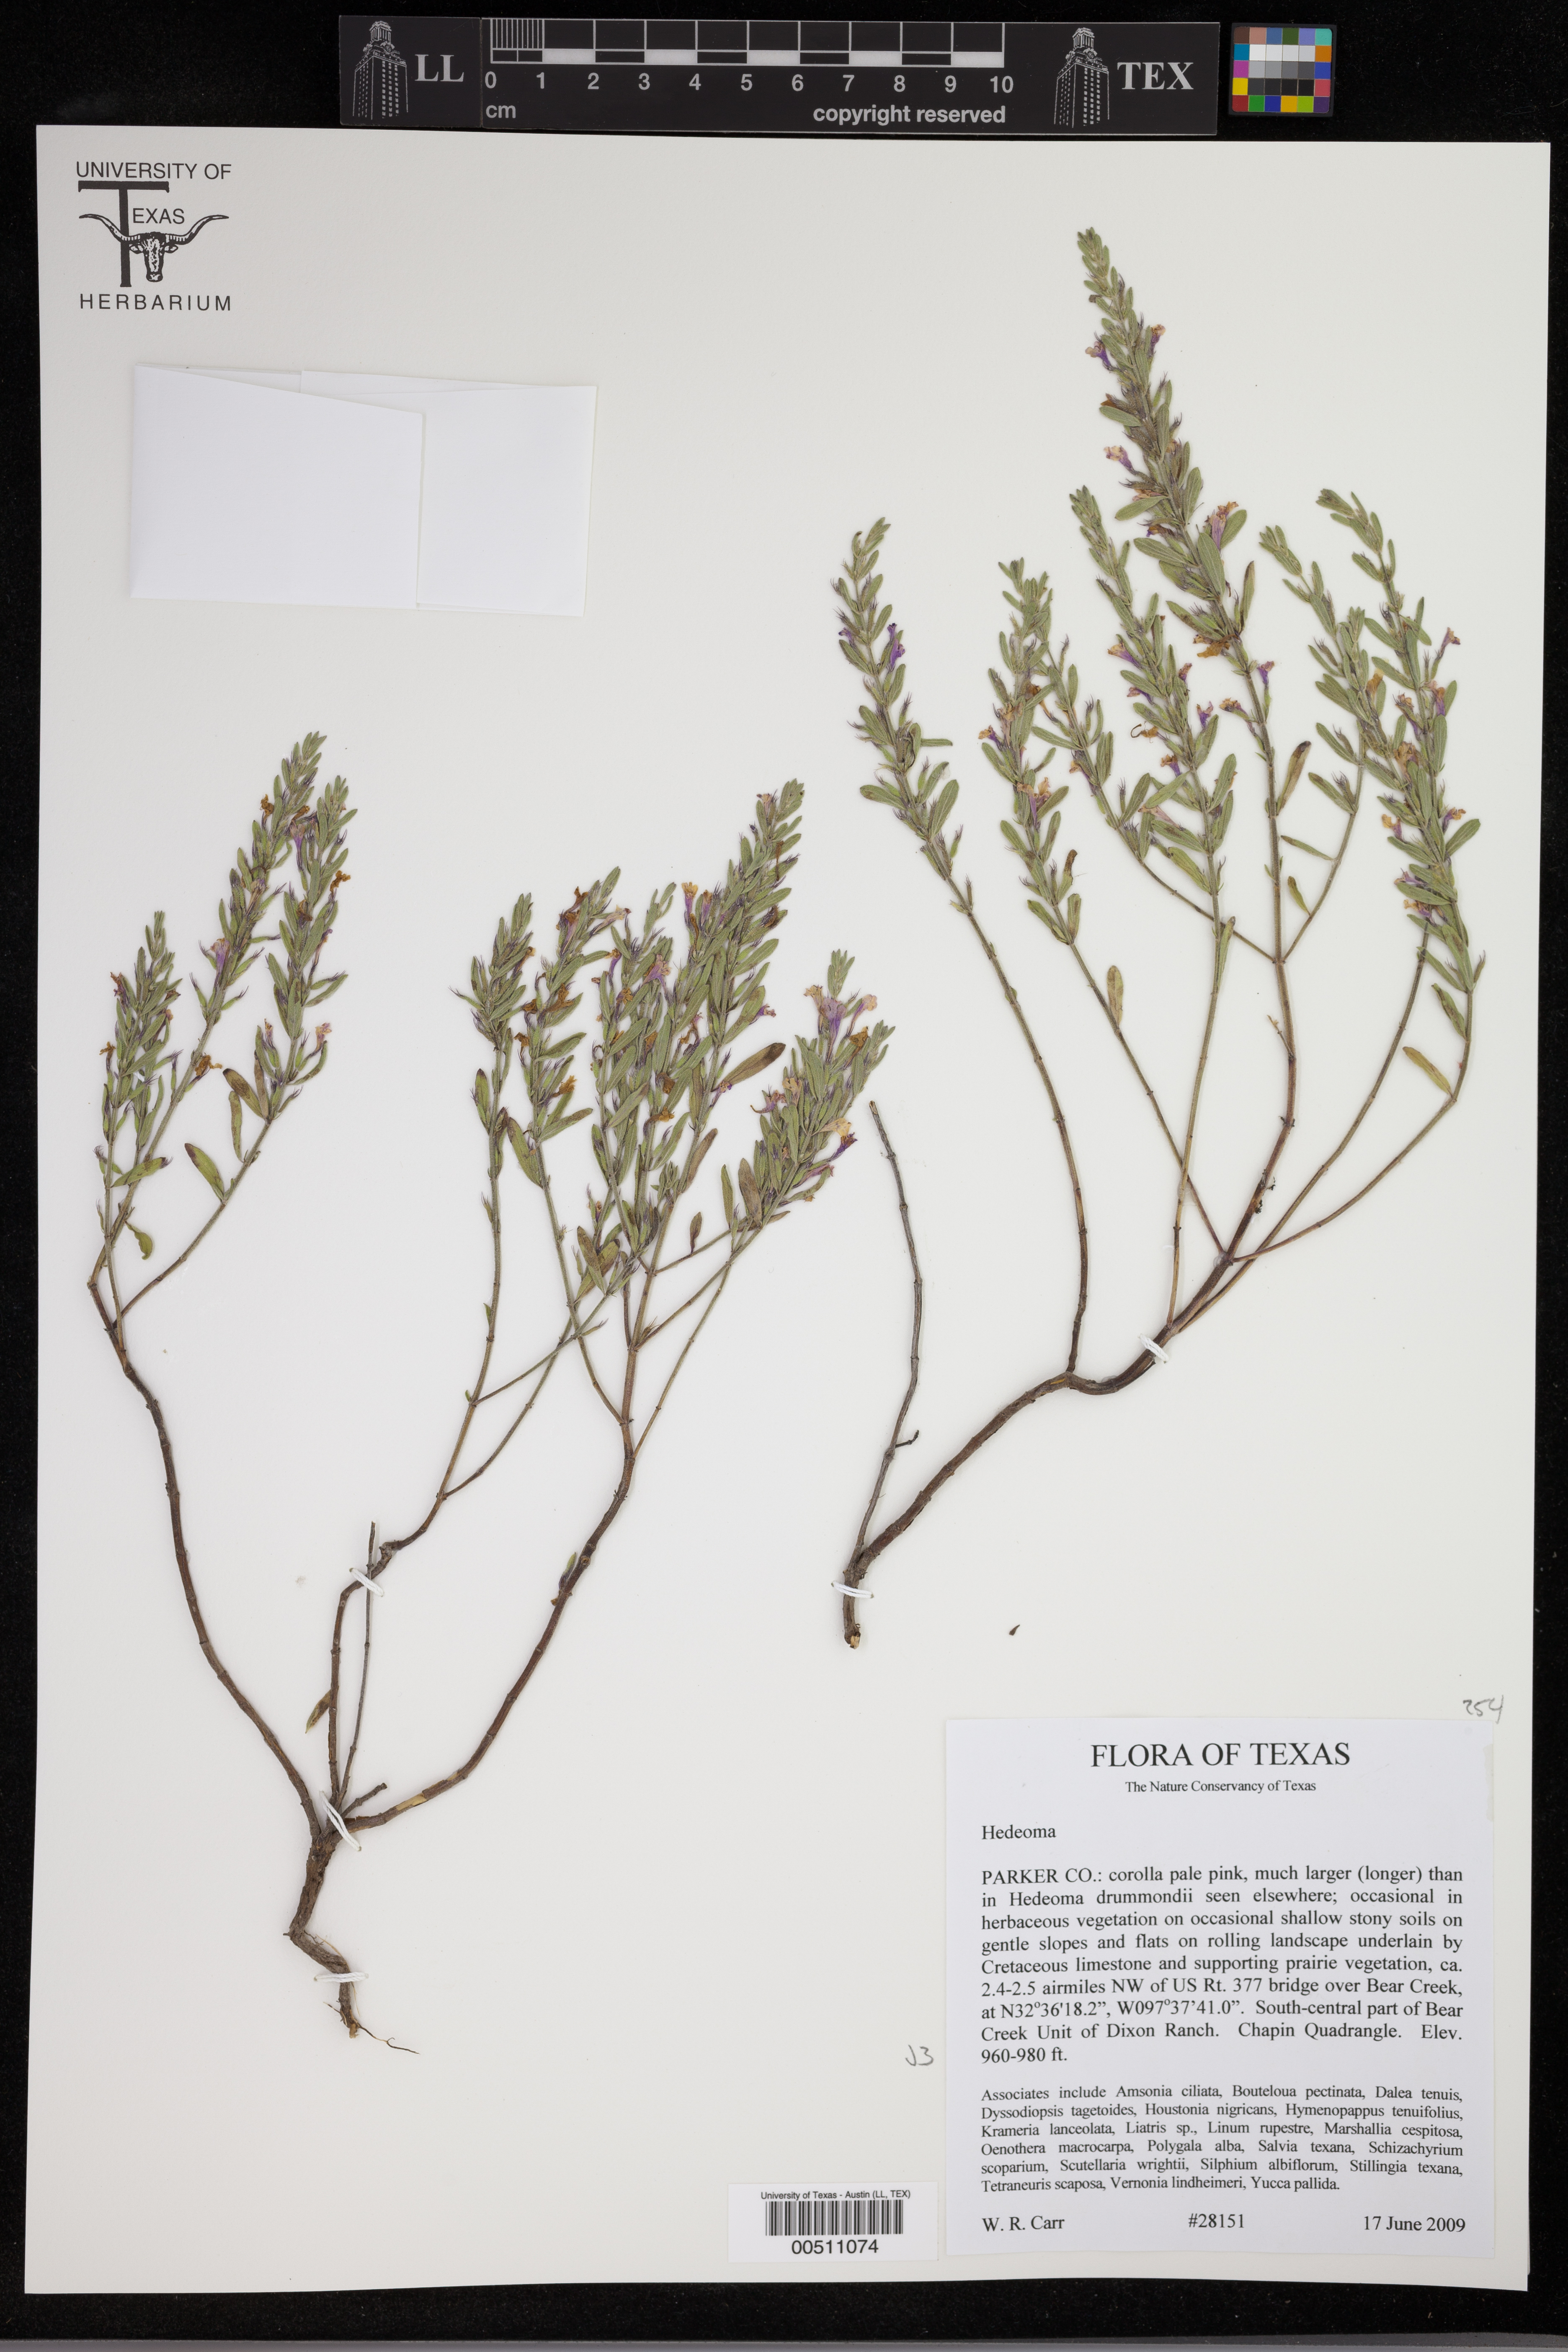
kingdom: Plantae
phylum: Tracheophyta
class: Magnoliopsida
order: Lamiales
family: Lamiaceae
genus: Hedeoma
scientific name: Hedeoma
